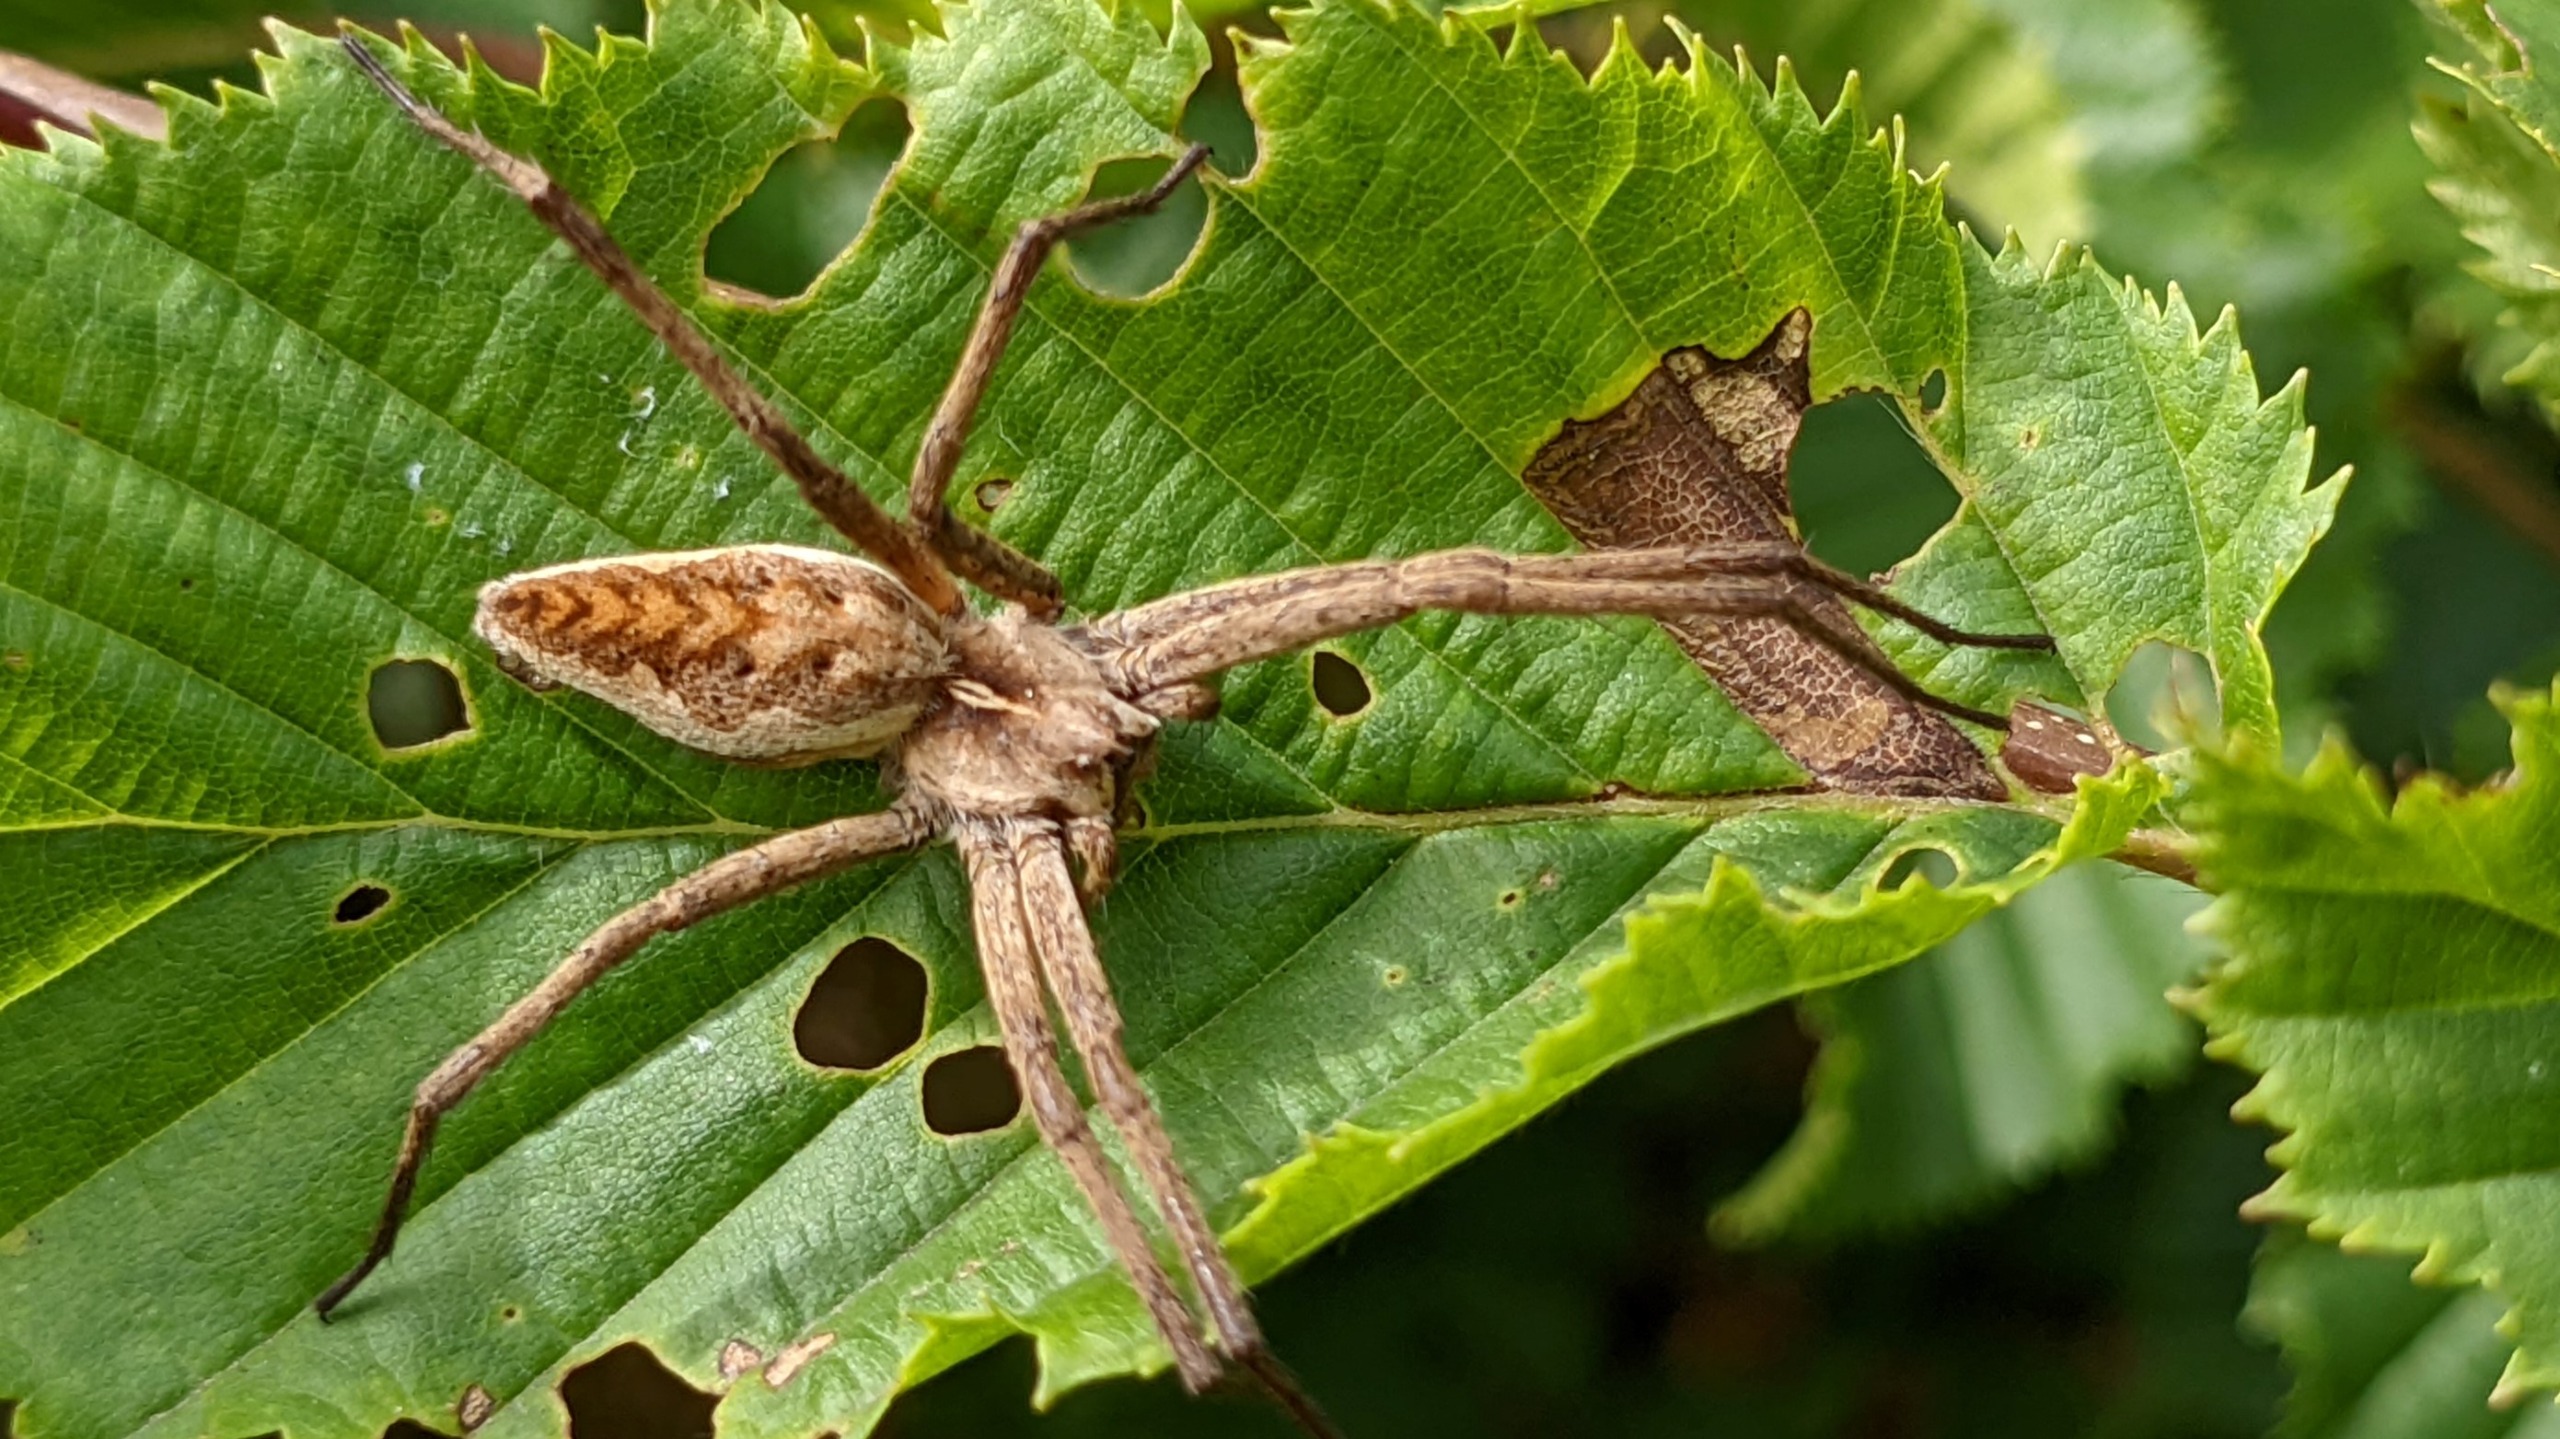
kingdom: Animalia
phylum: Arthropoda
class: Arachnida
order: Araneae
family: Pisauridae
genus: Pisaura
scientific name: Pisaura mirabilis
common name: Almindelig rovedderkop
